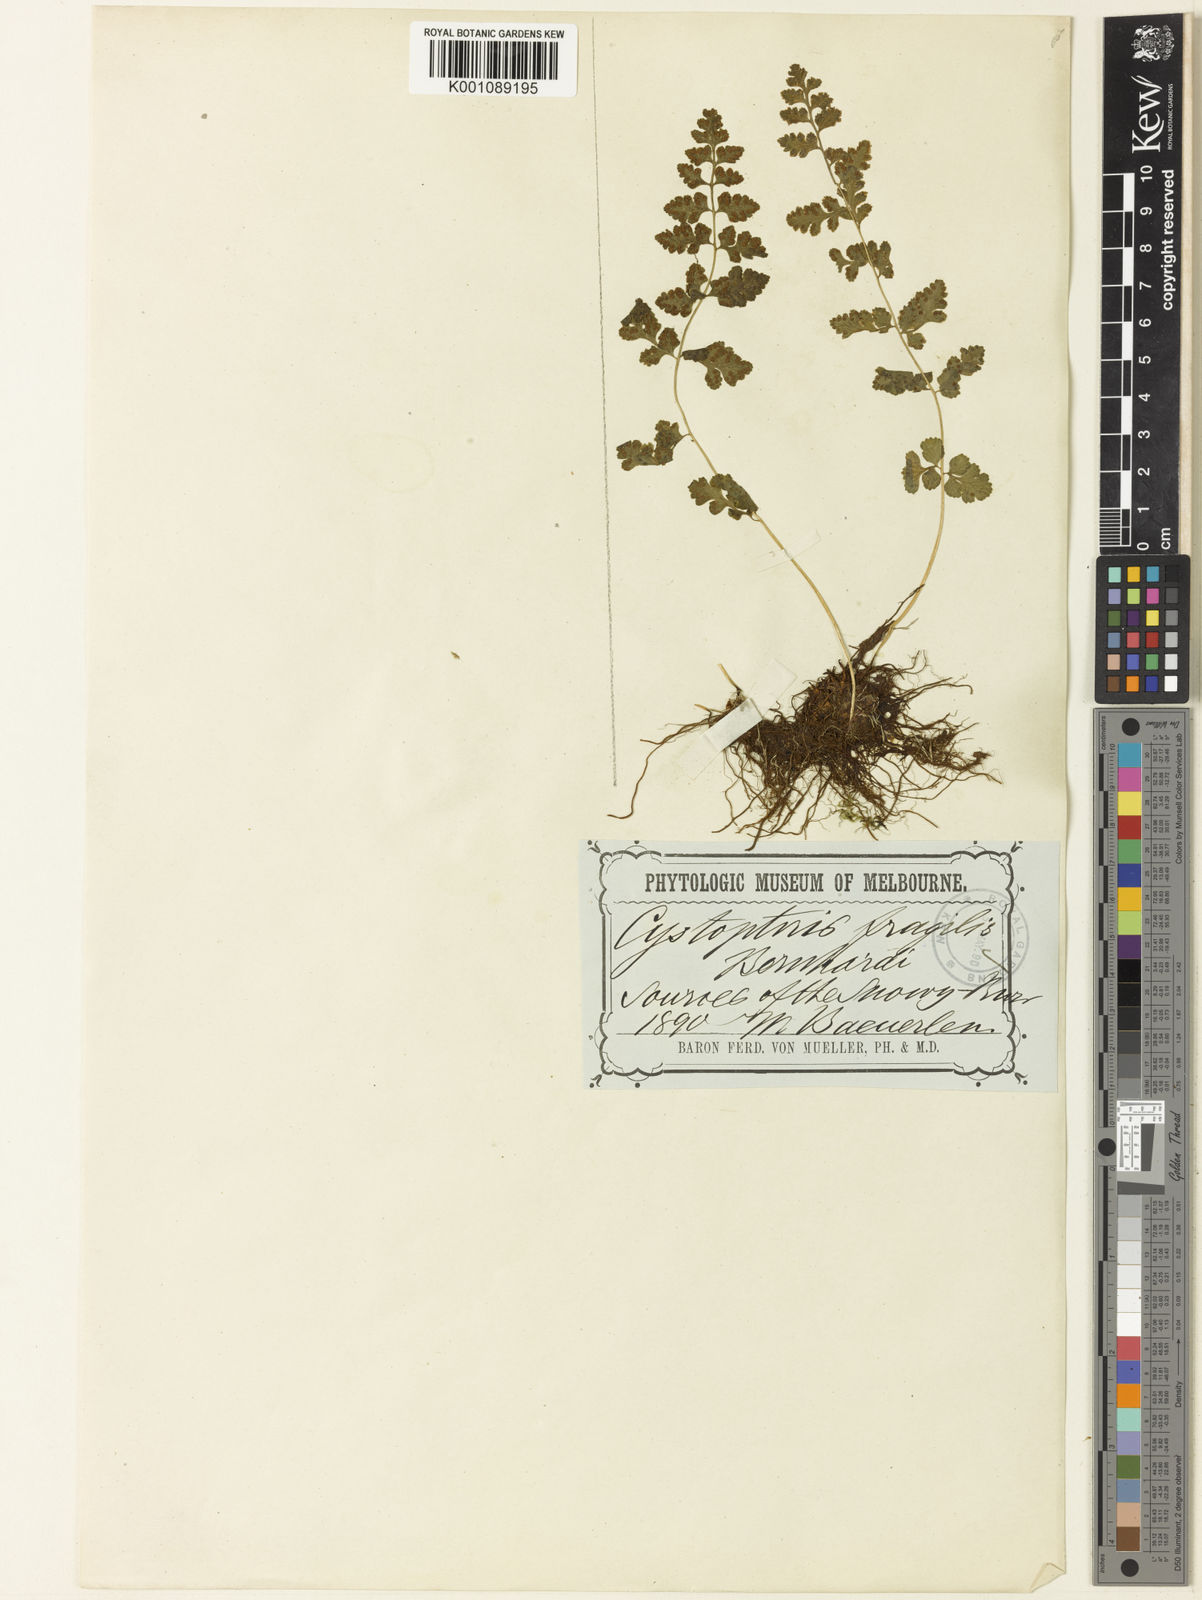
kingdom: Plantae
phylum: Tracheophyta
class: Polypodiopsida
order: Polypodiales
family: Cystopteridaceae
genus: Cystopteris
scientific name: Cystopteris tasmanica
